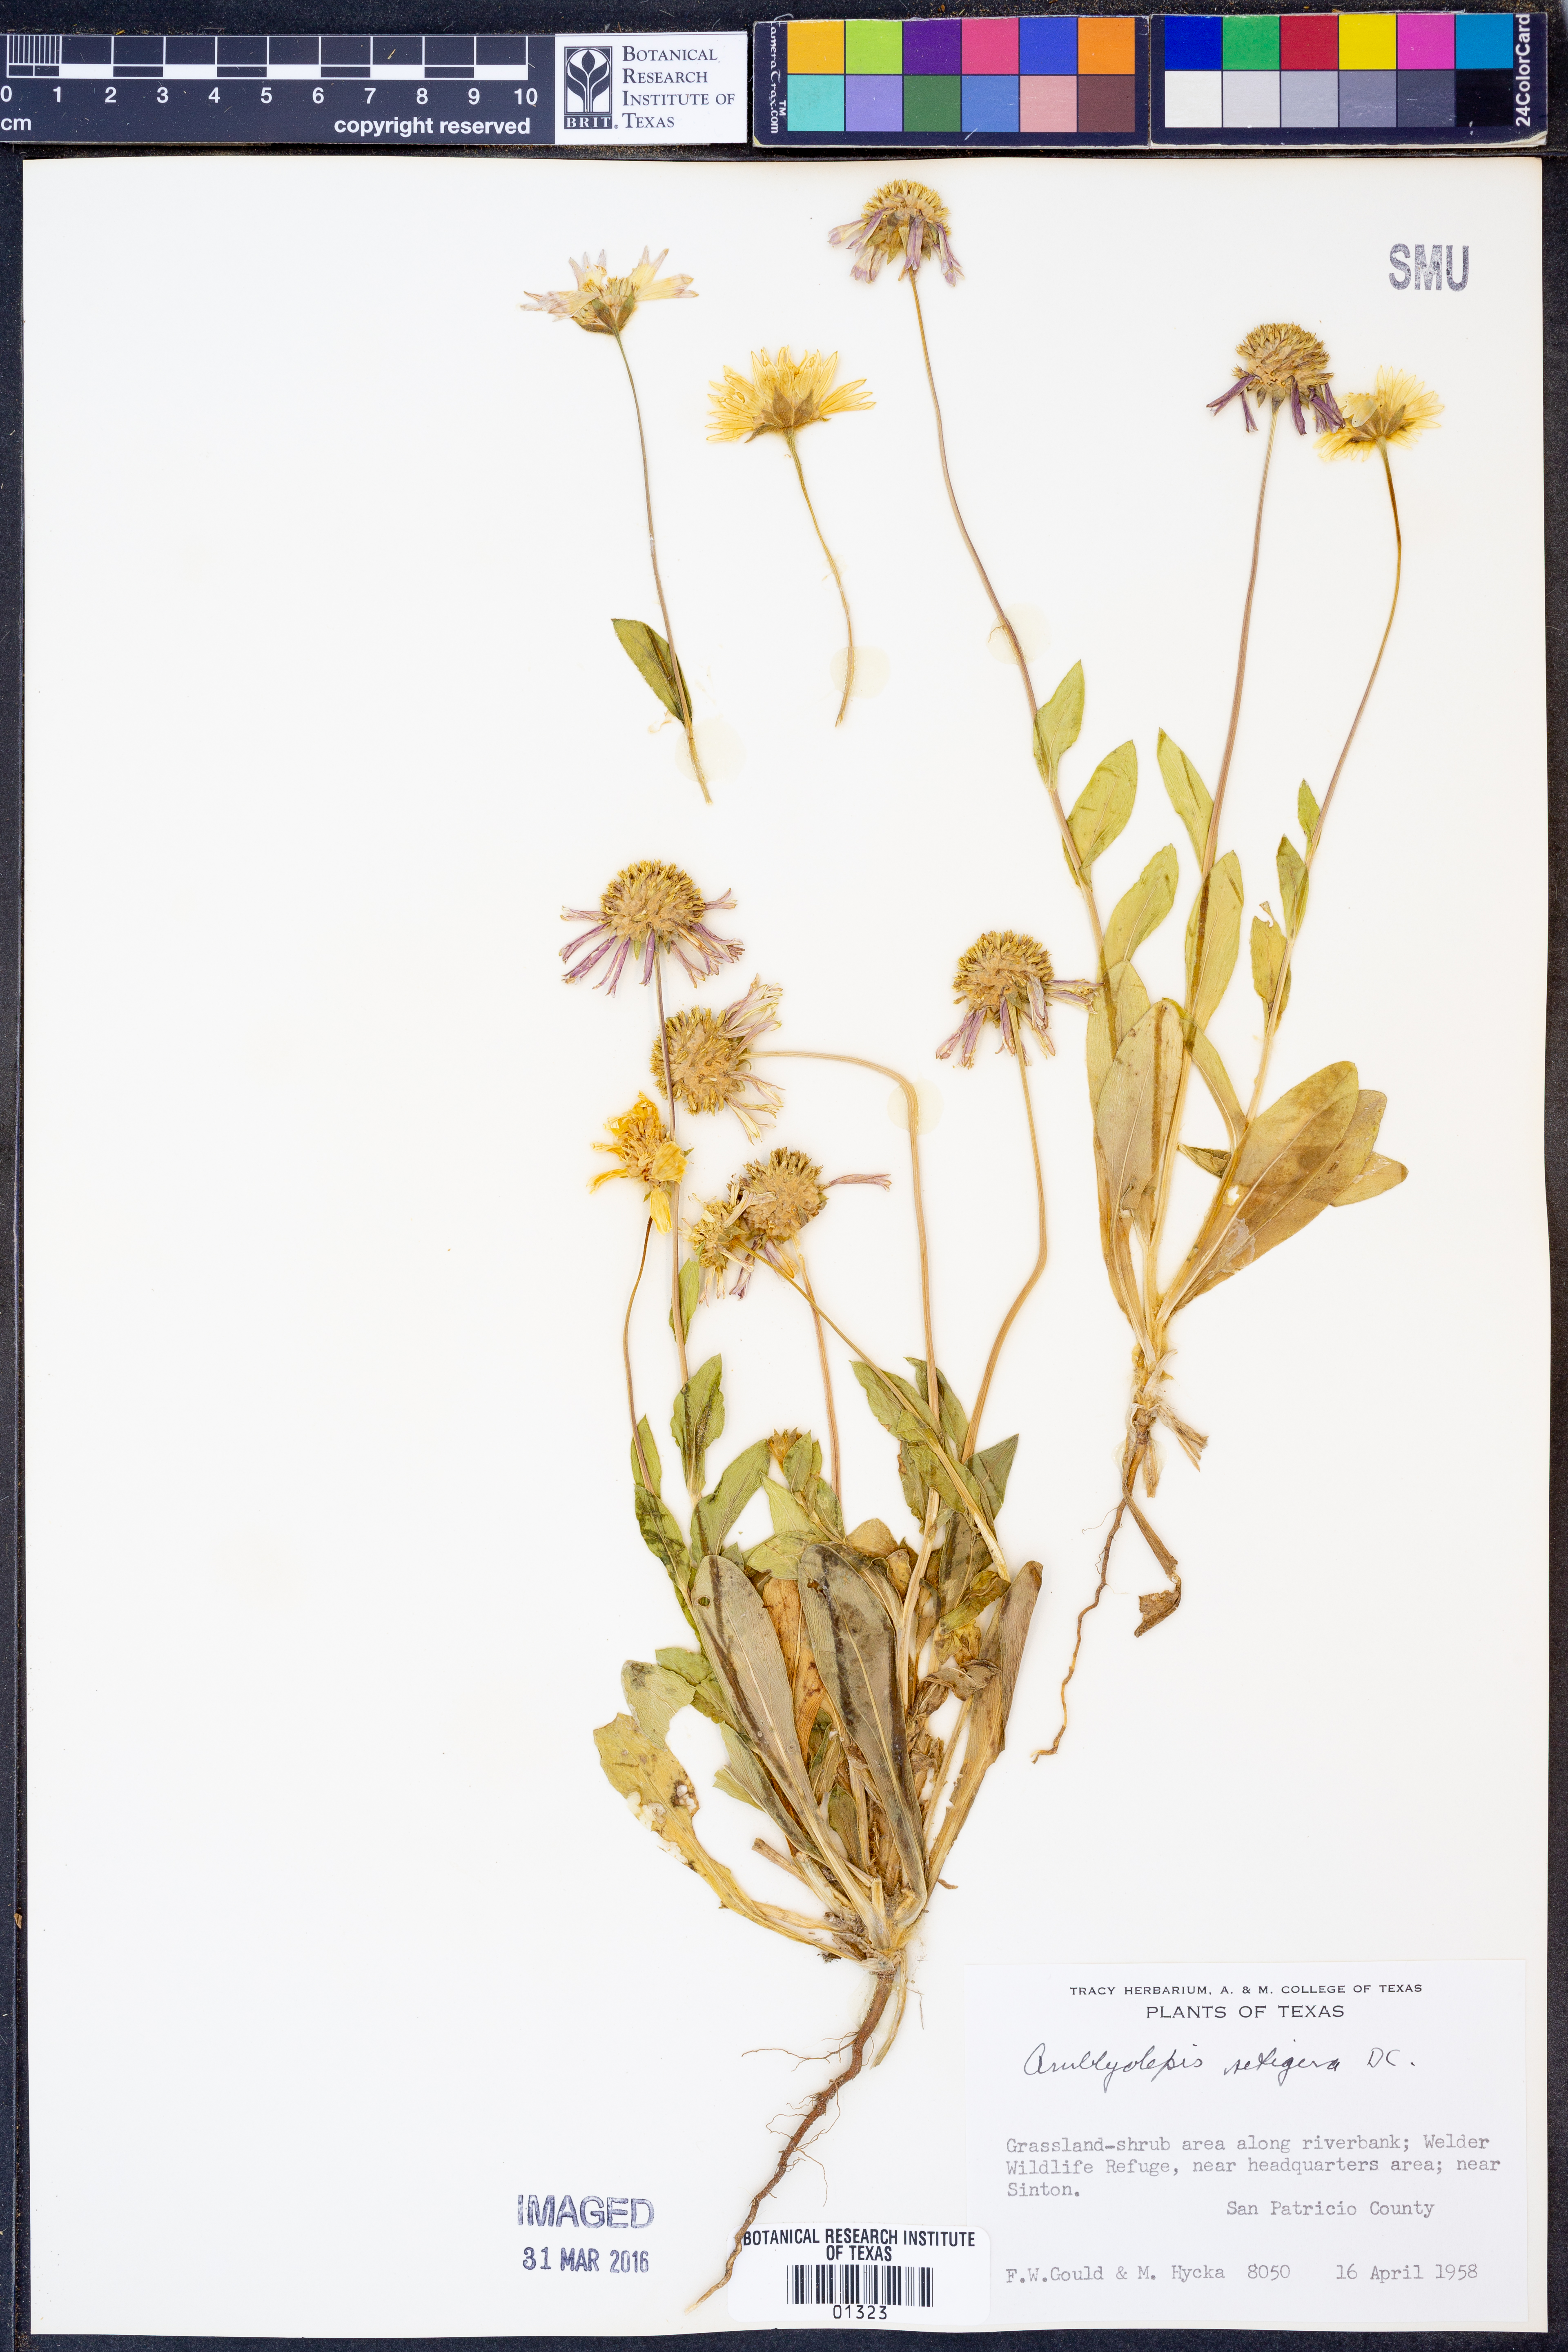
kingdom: Plantae
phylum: Tracheophyta
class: Magnoliopsida
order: Asterales
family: Asteraceae
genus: Amblyolepis
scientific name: Amblyolepis setigera
